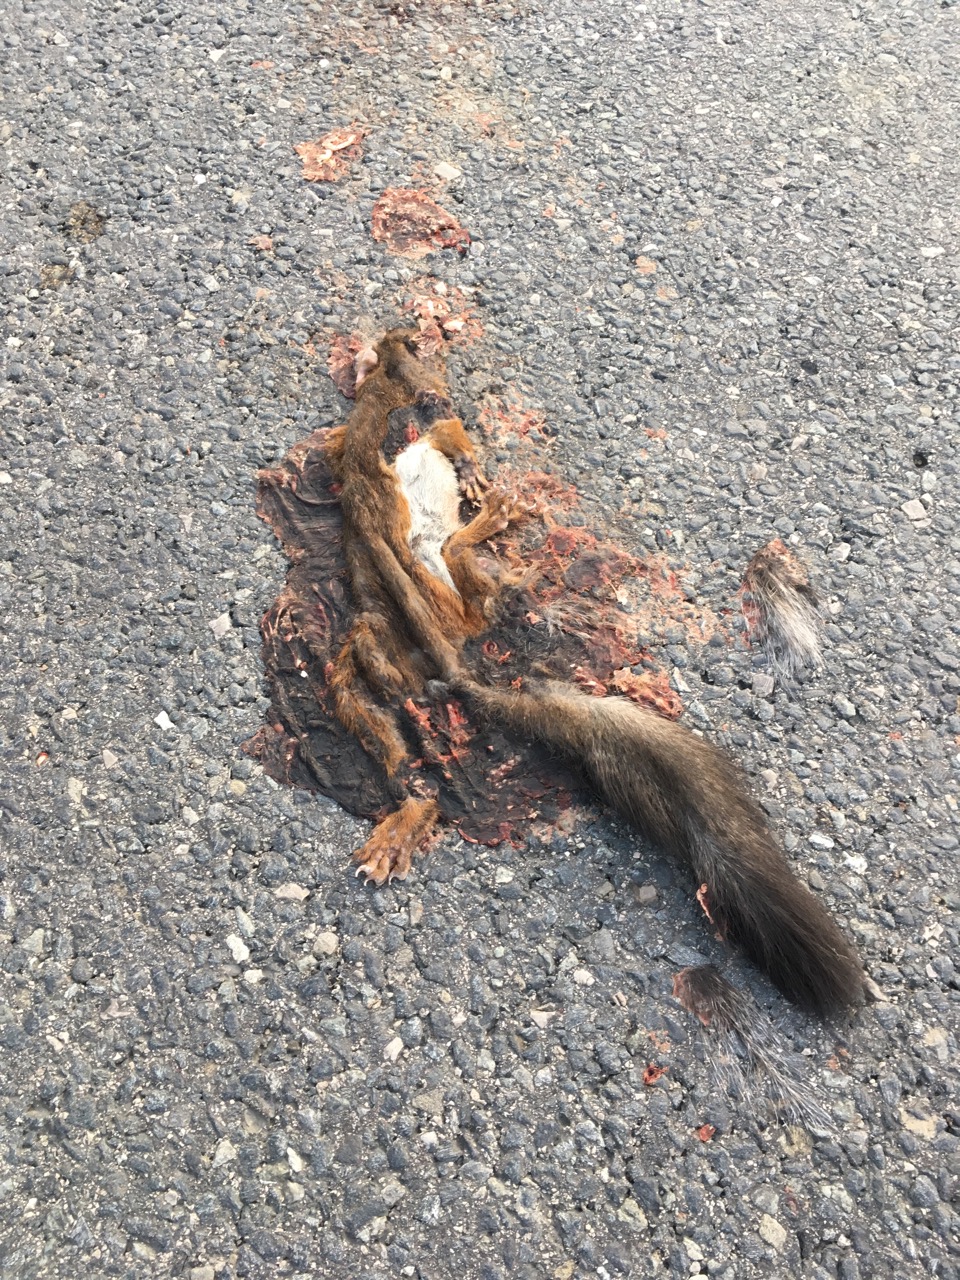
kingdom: Animalia
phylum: Chordata
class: Mammalia
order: Rodentia
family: Sciuridae
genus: Sciurus
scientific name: Sciurus vulgaris
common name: Eurasian red squirrel
